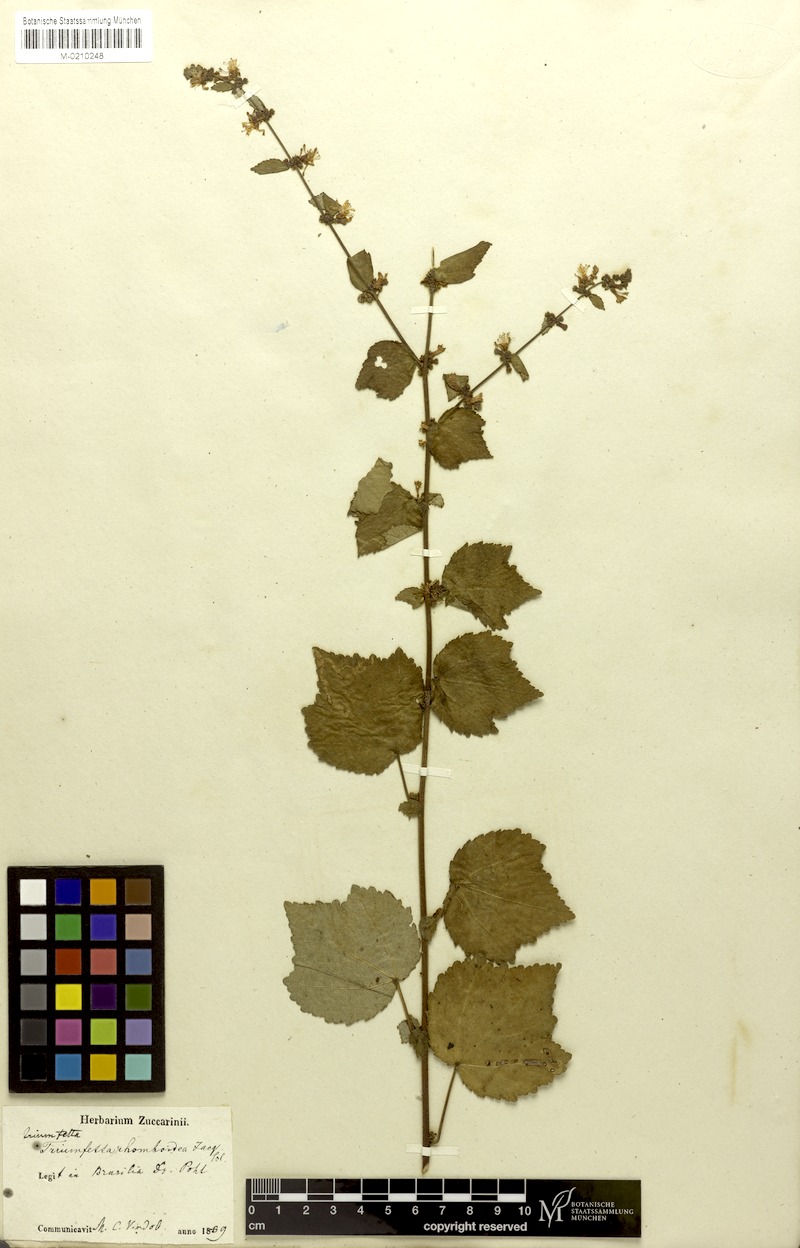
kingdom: Plantae
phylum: Tracheophyta
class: Magnoliopsida
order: Malvales
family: Malvaceae
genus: Triumfetta
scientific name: Triumfetta rhomboidea
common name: Diamond burbark
